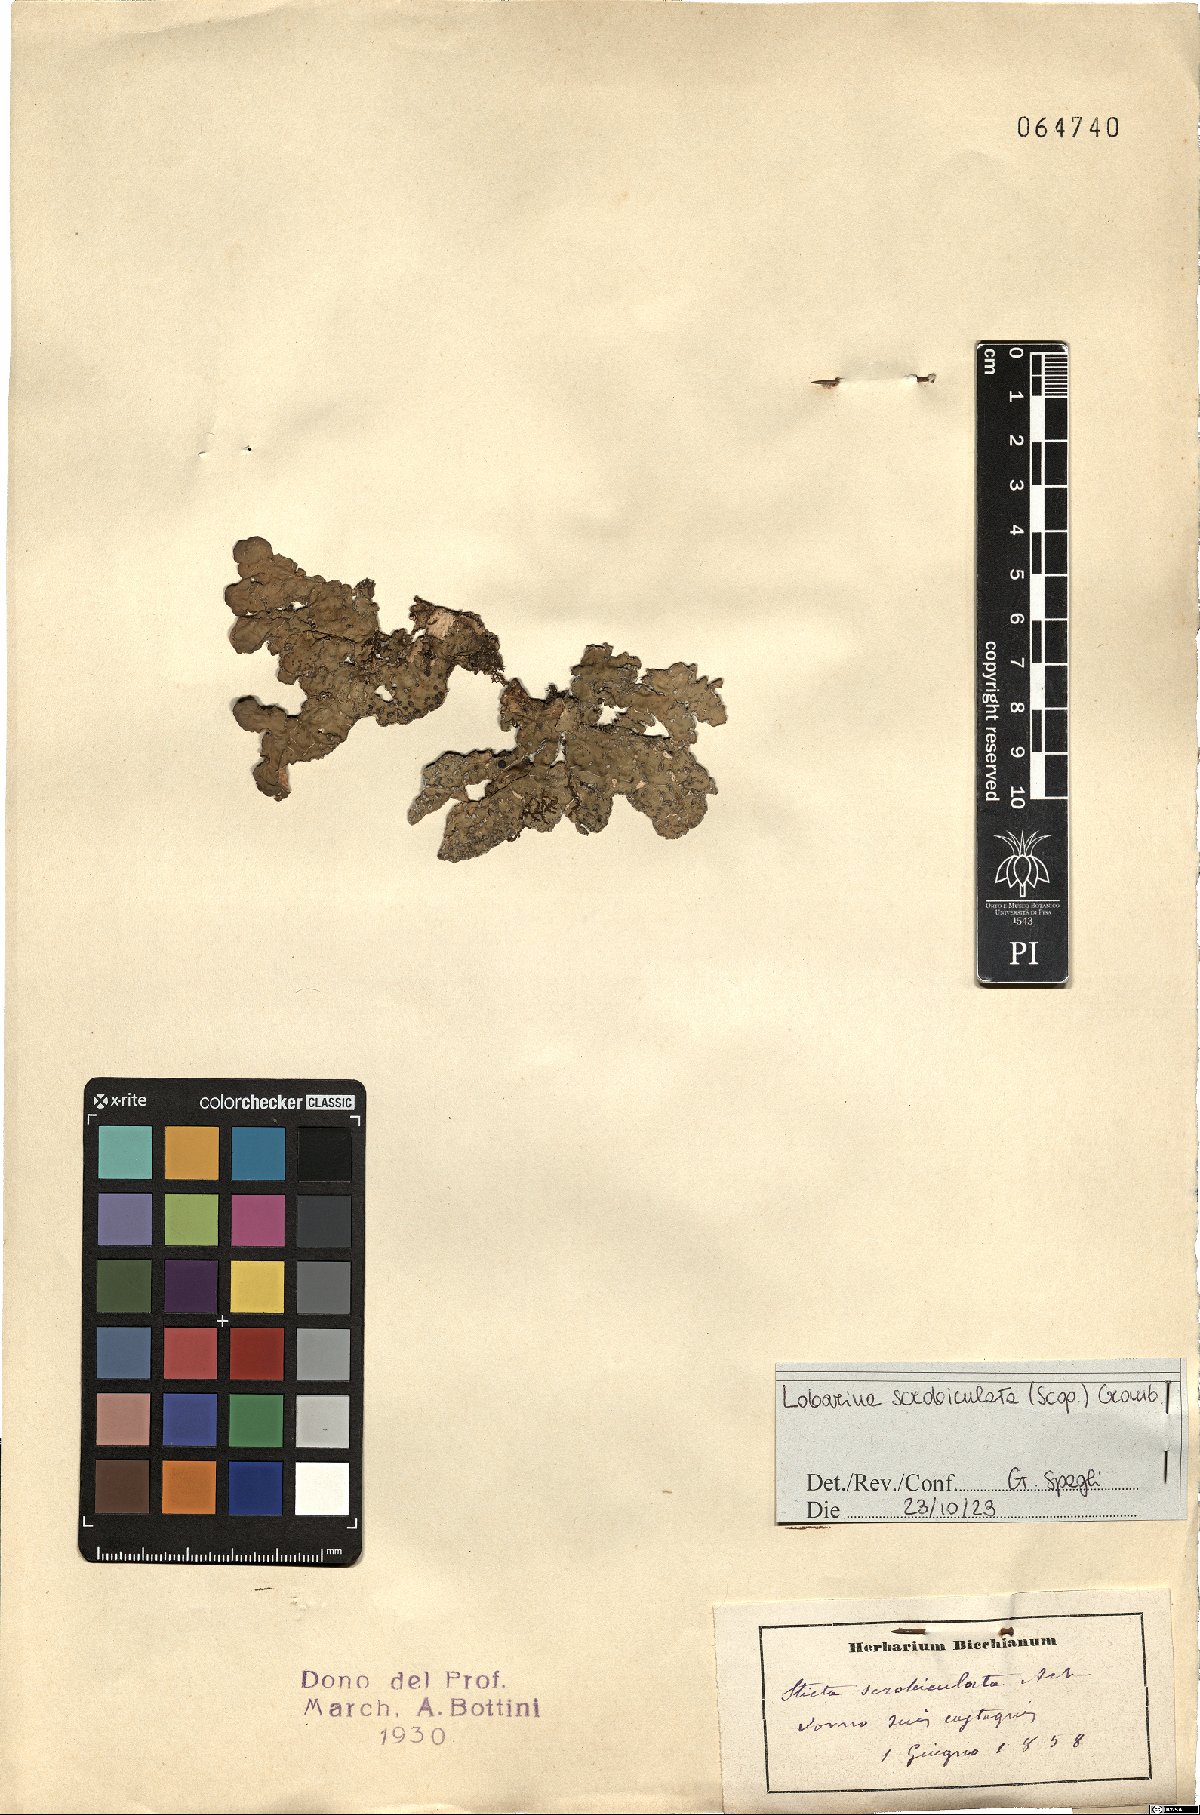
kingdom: Fungi
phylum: Ascomycota
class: Lecanoromycetes
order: Peltigerales
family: Lobariaceae
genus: Lobarina
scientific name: Lobarina scrobiculata
